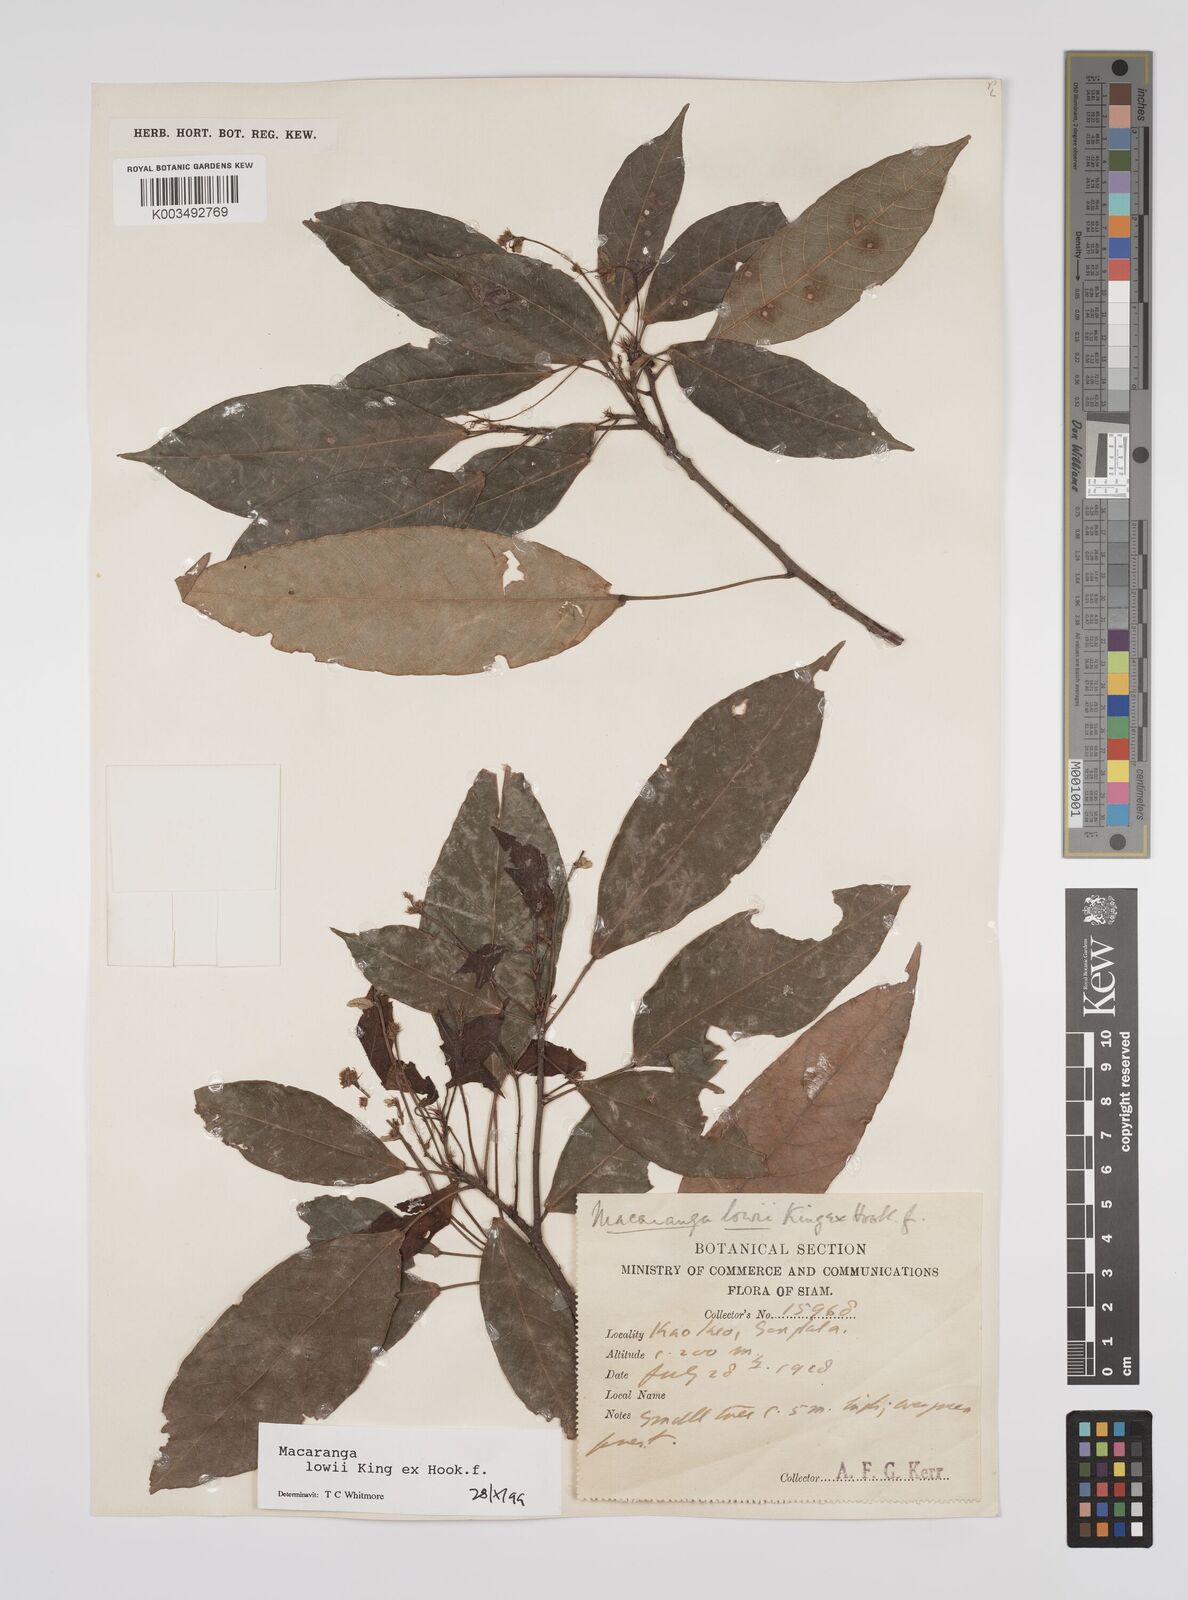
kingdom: Plantae
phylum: Tracheophyta
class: Magnoliopsida
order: Malpighiales
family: Euphorbiaceae
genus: Macaranga
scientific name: Macaranga lowii
